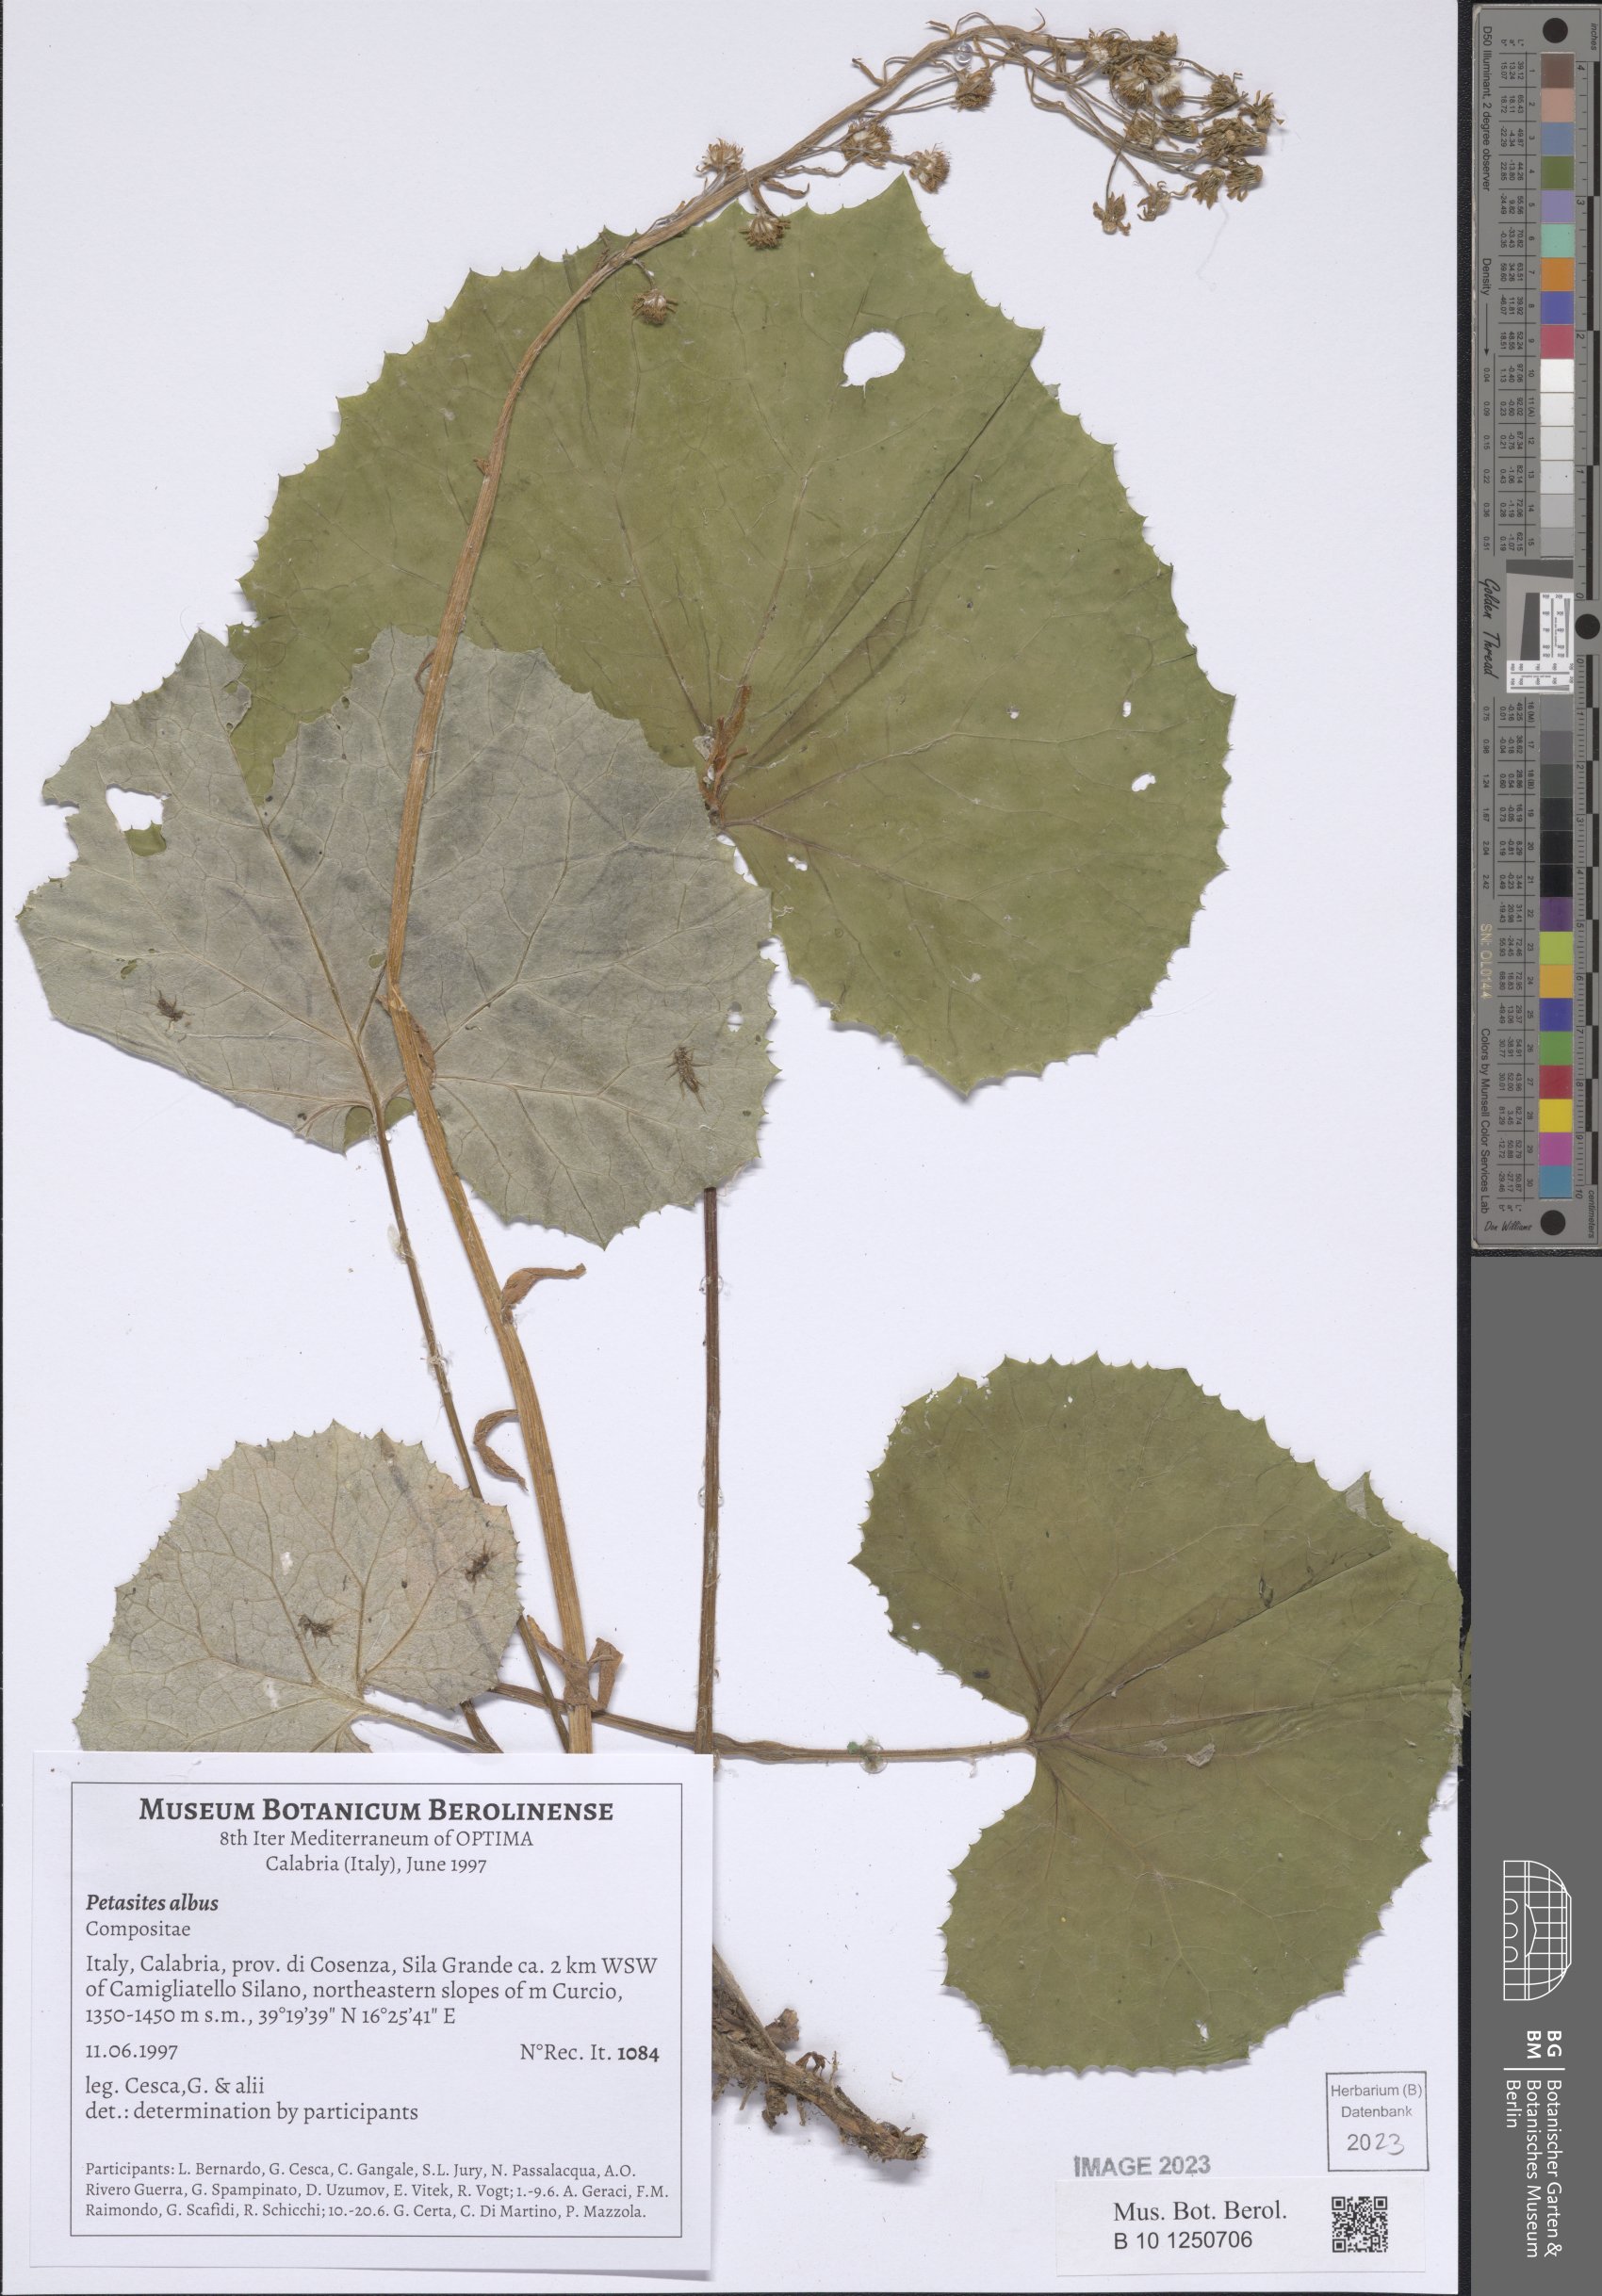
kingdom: Plantae
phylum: Tracheophyta
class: Magnoliopsida
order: Asterales
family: Asteraceae
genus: Petasites
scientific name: Petasites albus
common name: White butterbur
